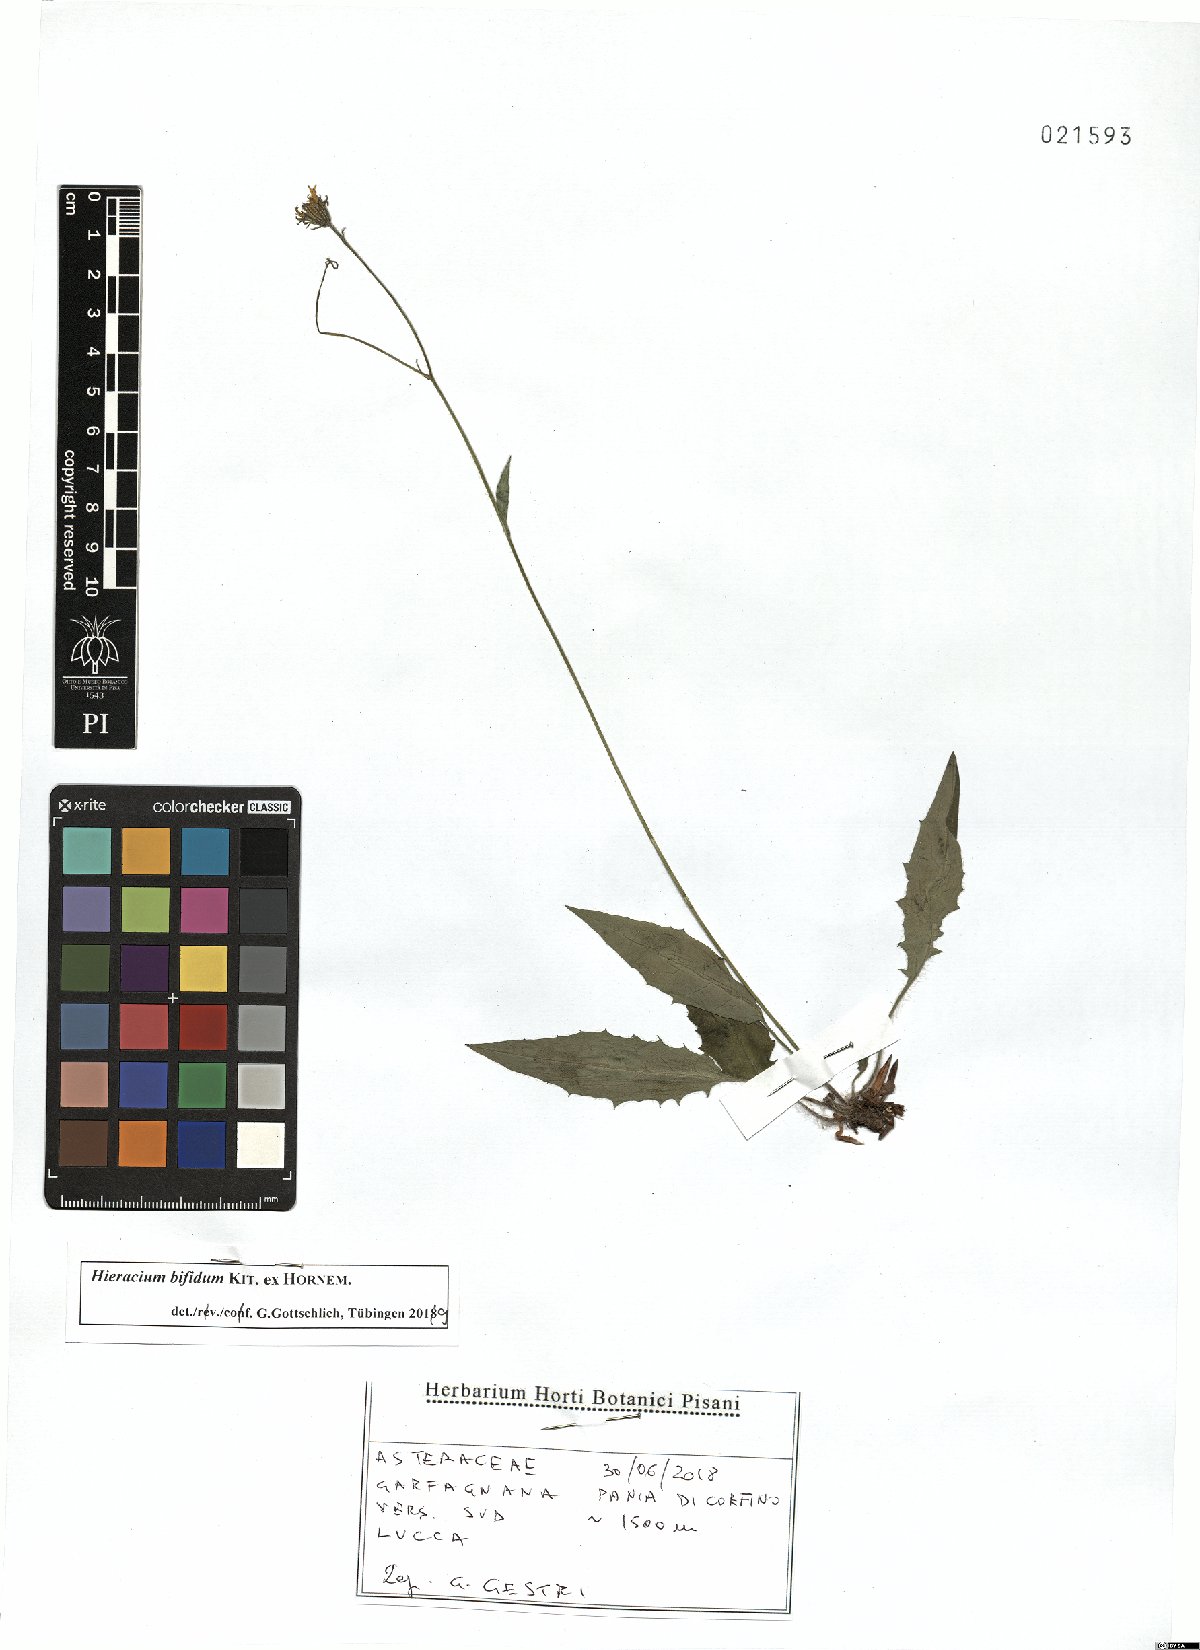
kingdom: Plantae
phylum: Tracheophyta
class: Magnoliopsida
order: Asterales
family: Asteraceae
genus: Hieracium
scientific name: Hieracium bifidum
